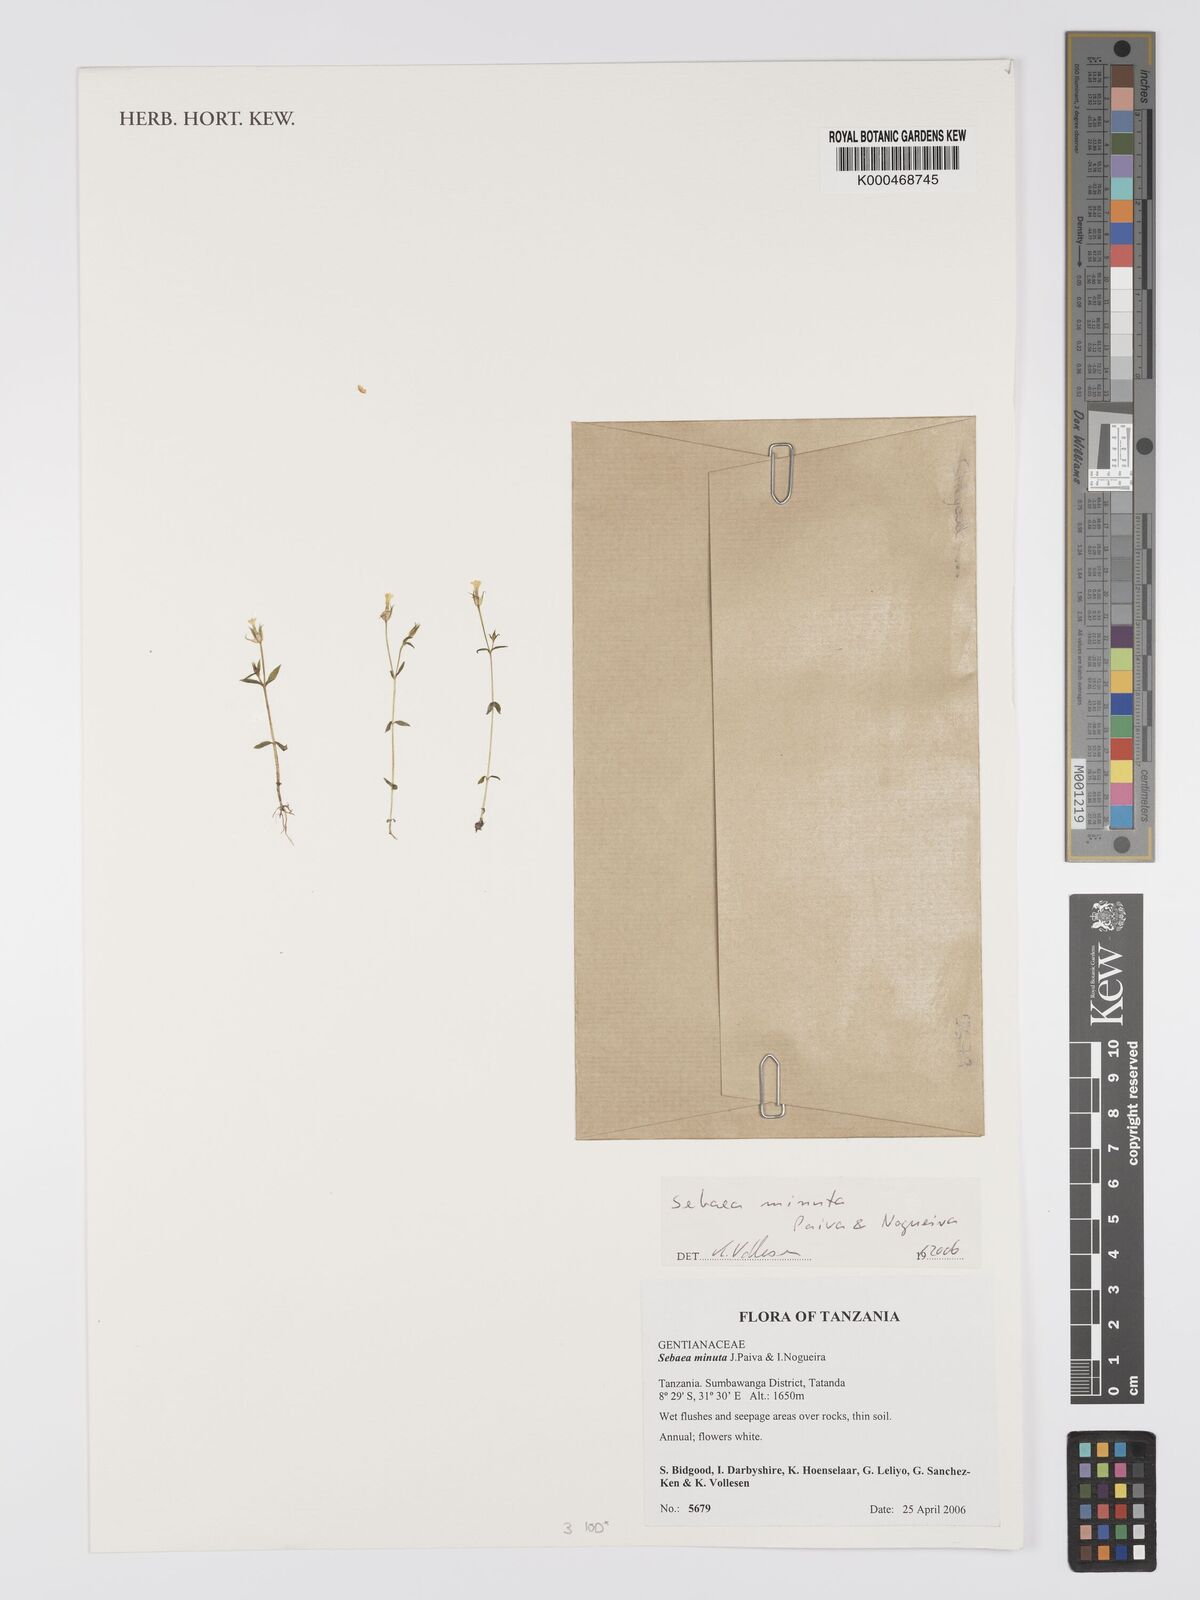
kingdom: Plantae
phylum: Tracheophyta
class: Magnoliopsida
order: Gentianales
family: Gentianaceae
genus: Exochaenium
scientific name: Exochaenium exiguum
